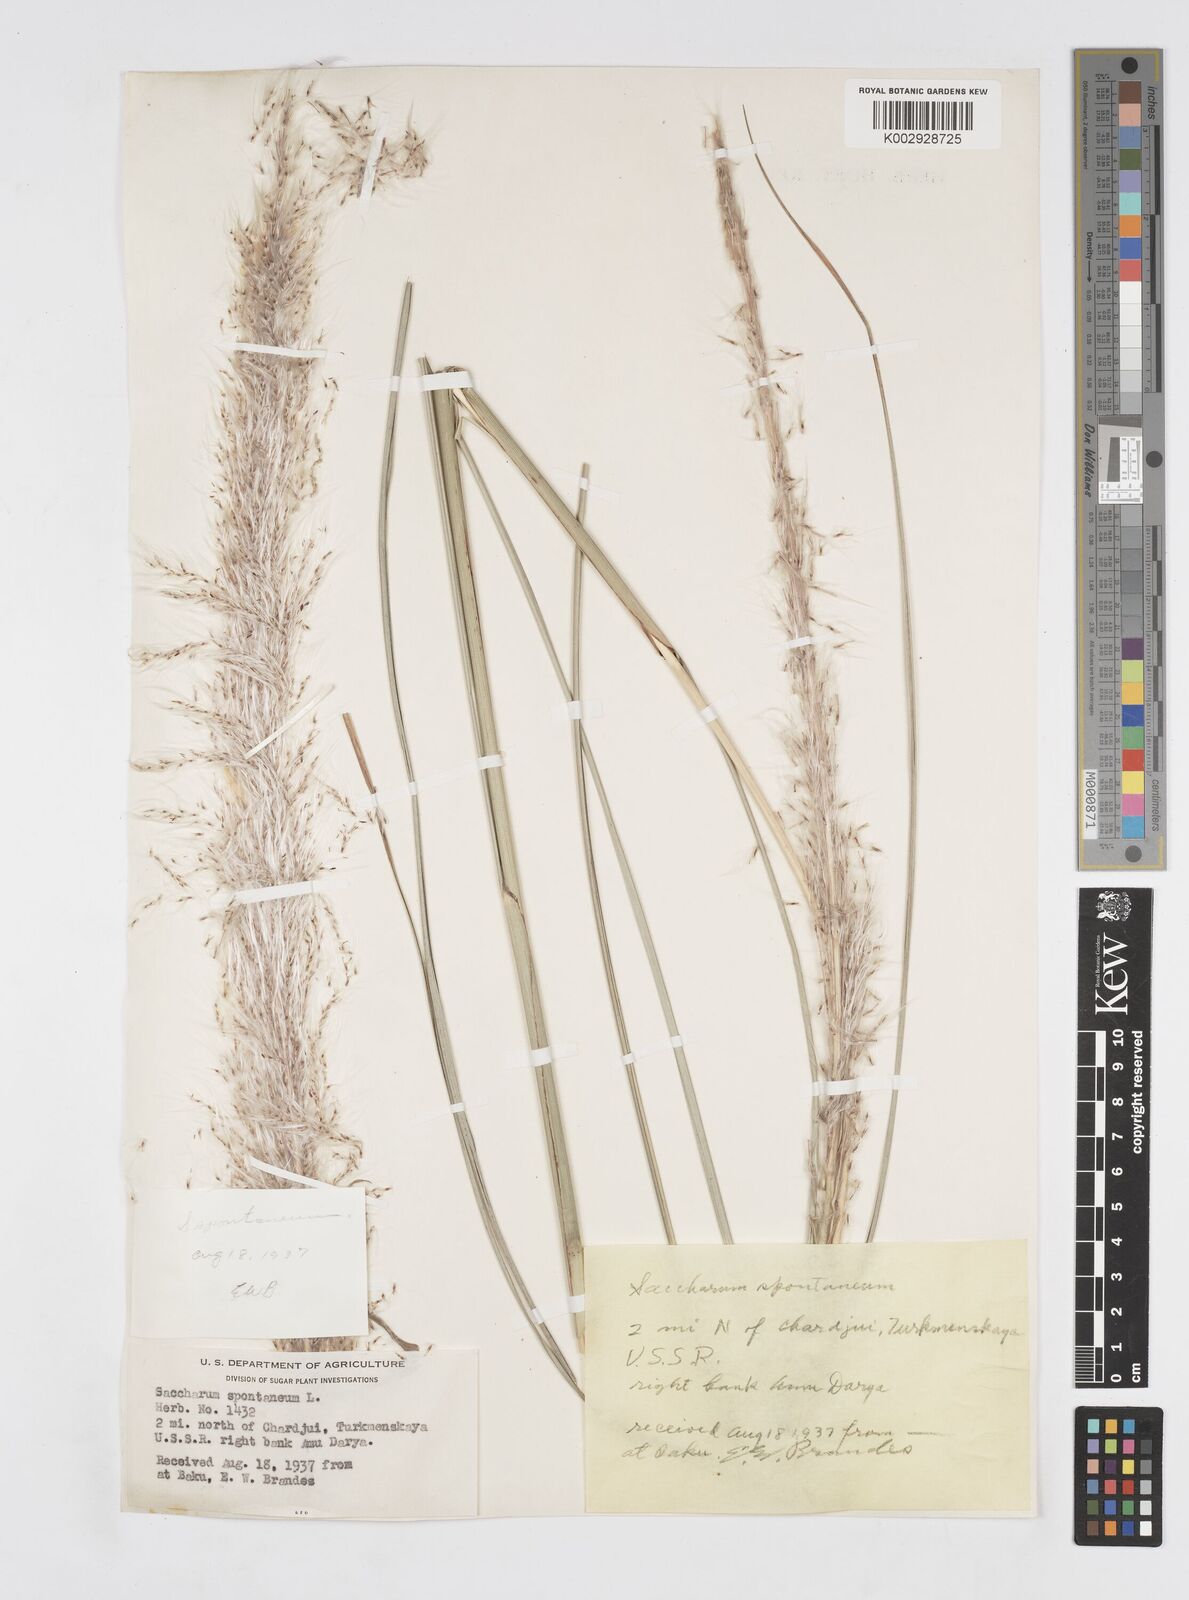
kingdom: Plantae
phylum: Tracheophyta
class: Liliopsida
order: Poales
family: Poaceae
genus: Saccharum
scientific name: Saccharum spontaneum
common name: Wild sugarcane
